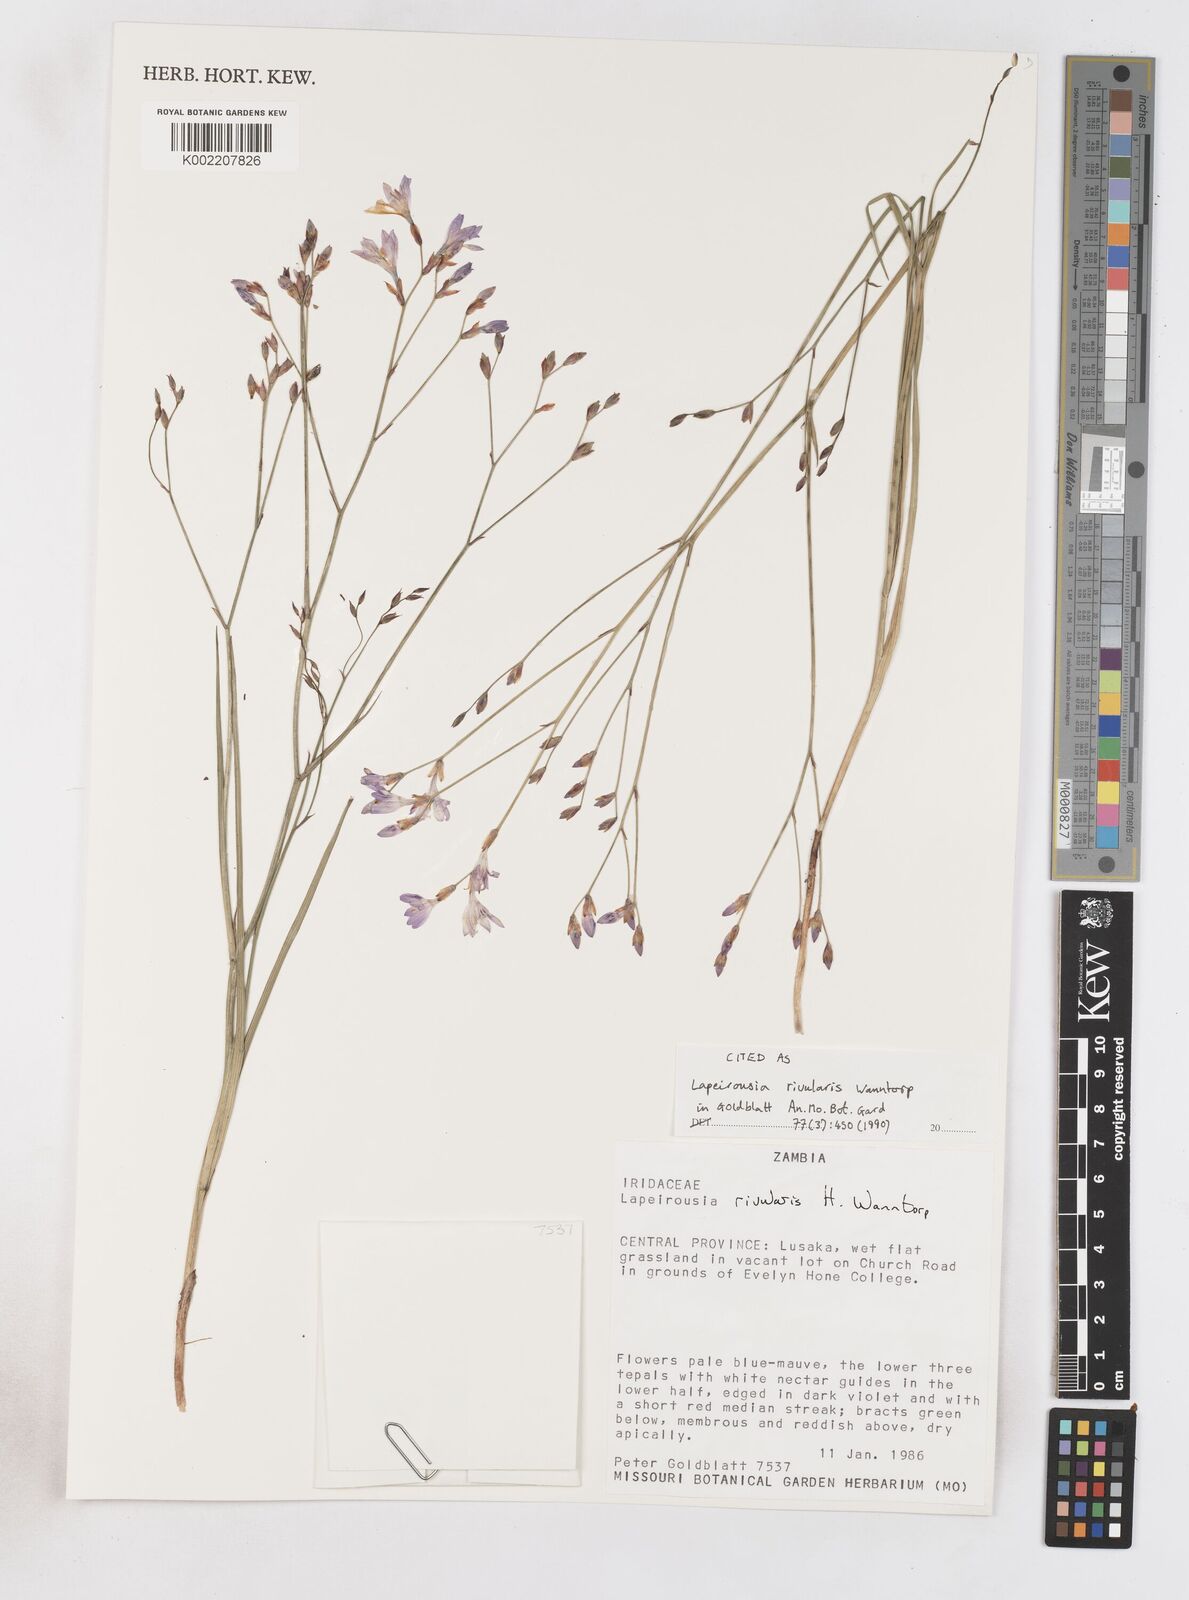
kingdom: Plantae
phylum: Tracheophyta
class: Liliopsida
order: Asparagales
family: Iridaceae
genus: Afrosolen
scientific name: Afrosolen rivularis
